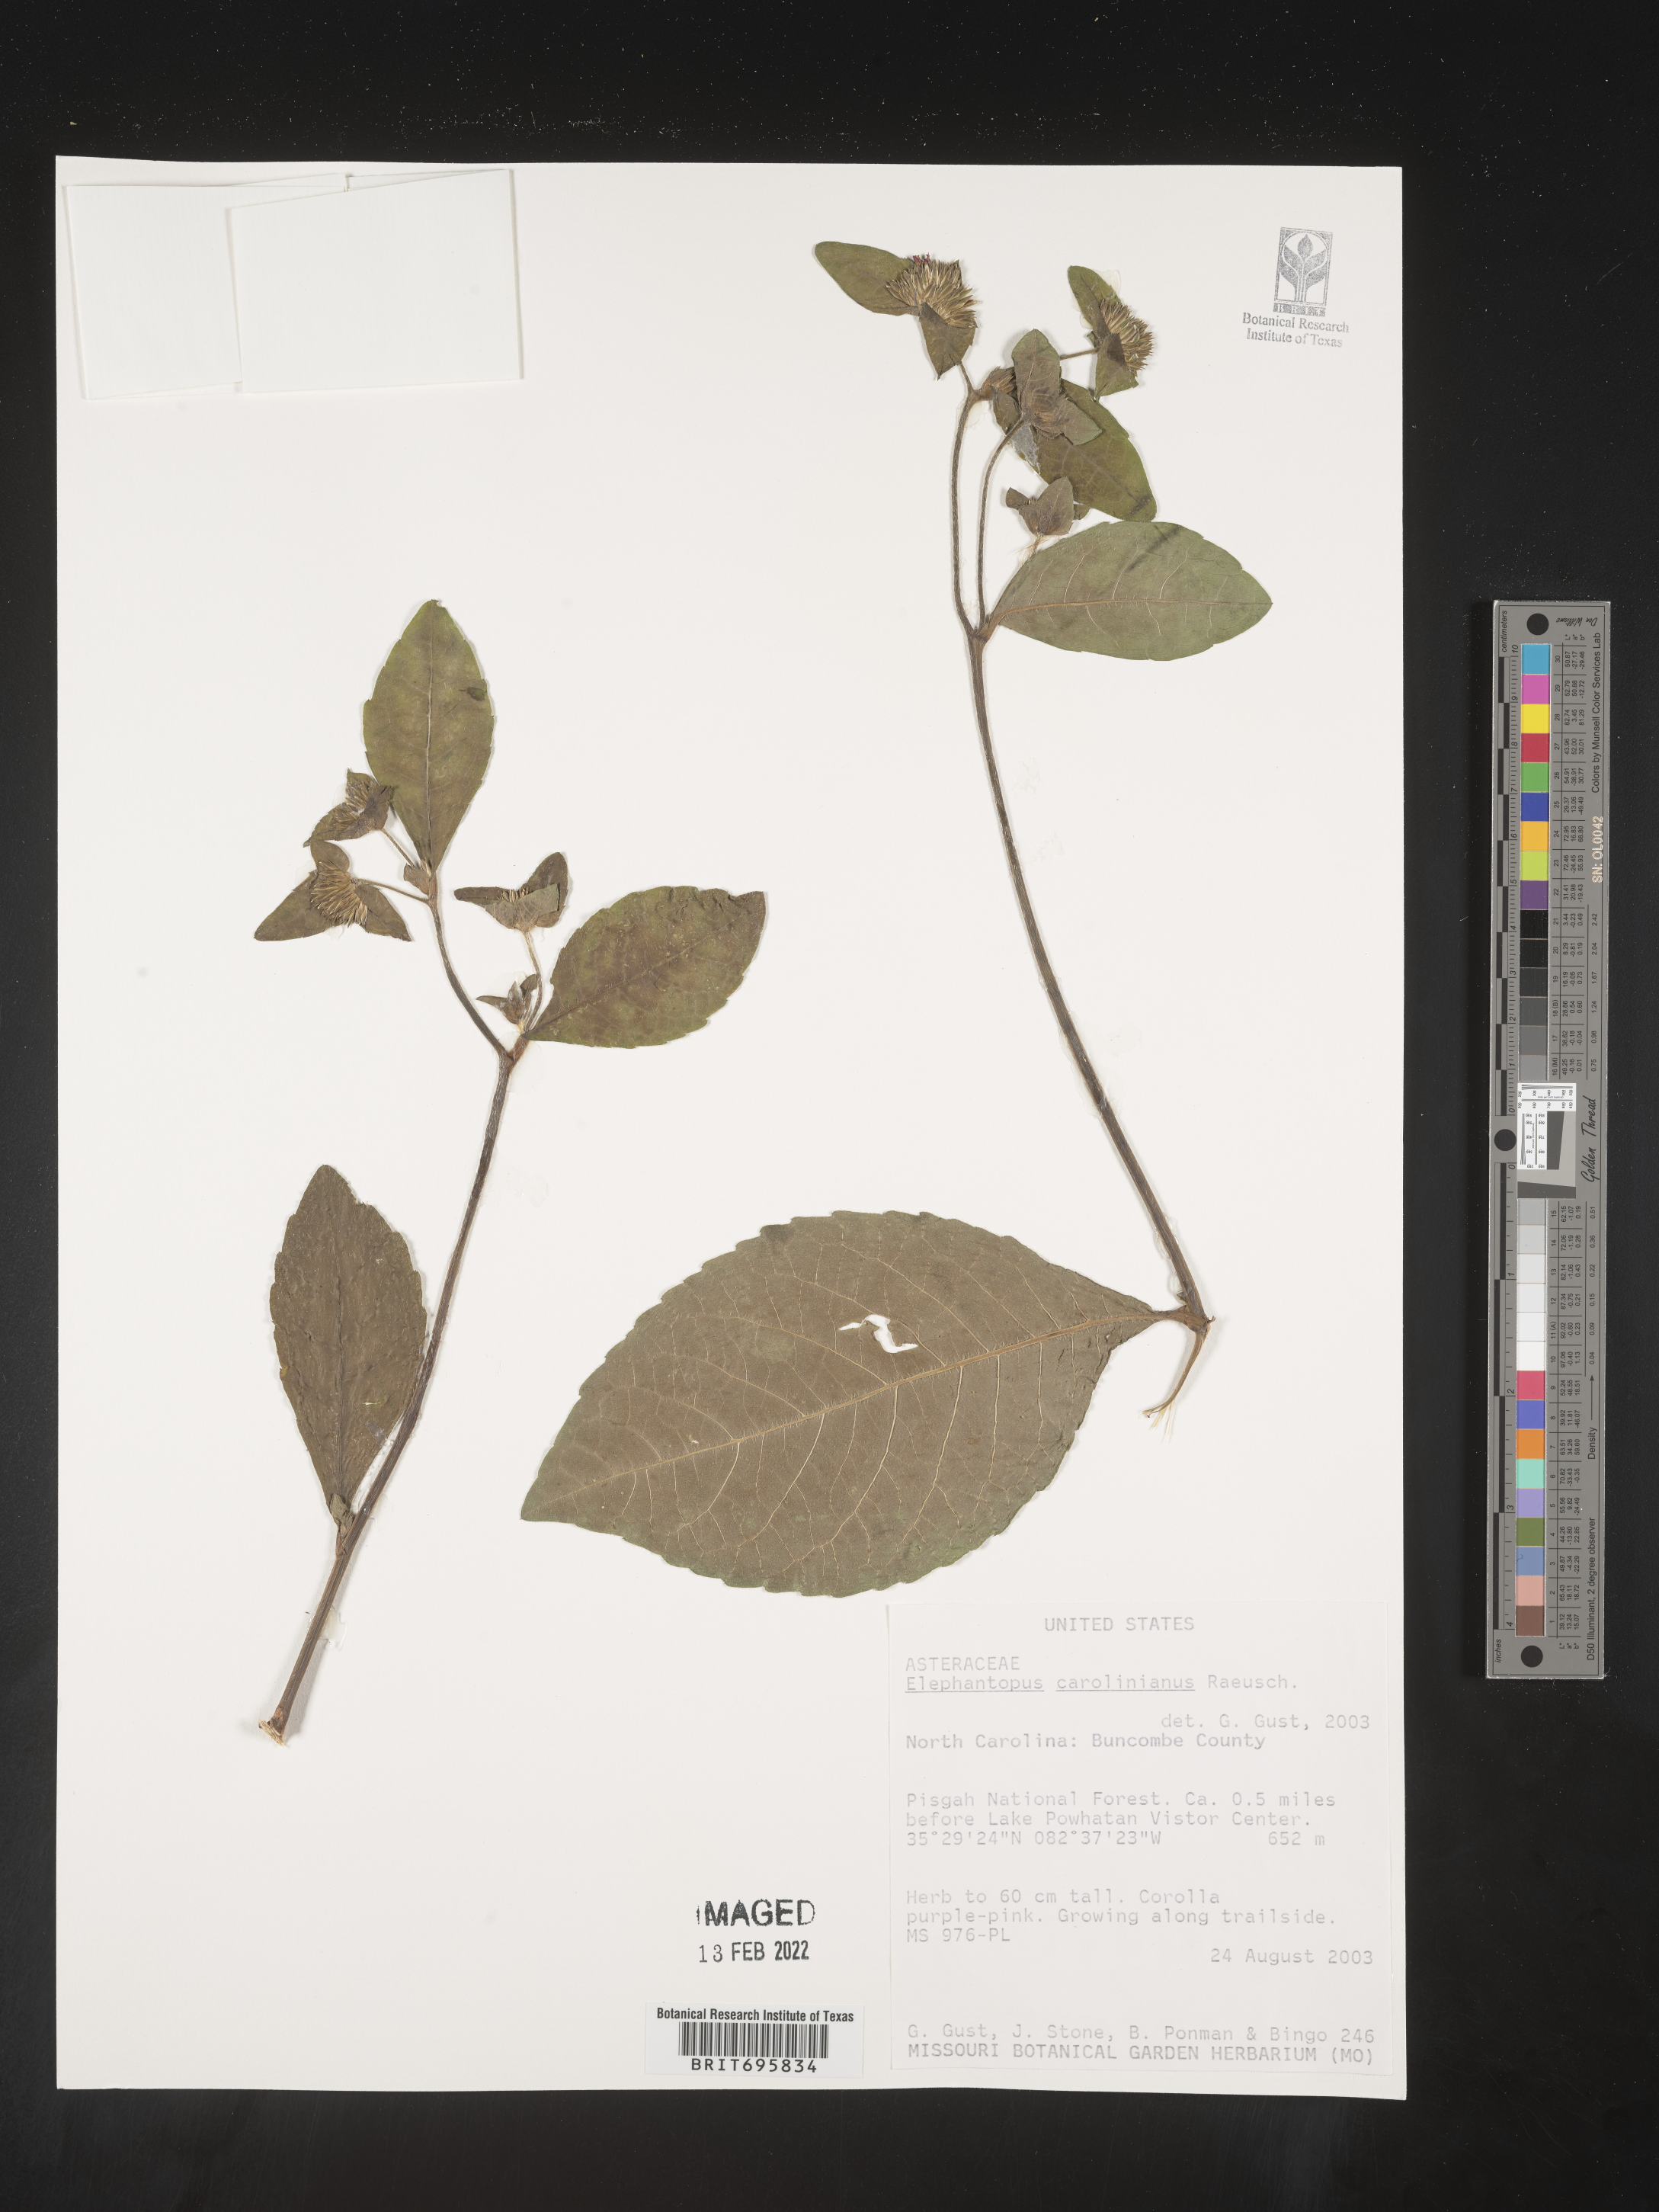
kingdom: Plantae
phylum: Tracheophyta
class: Magnoliopsida
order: Asterales
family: Asteraceae
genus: Elephantopus
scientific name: Elephantopus carolinianus
